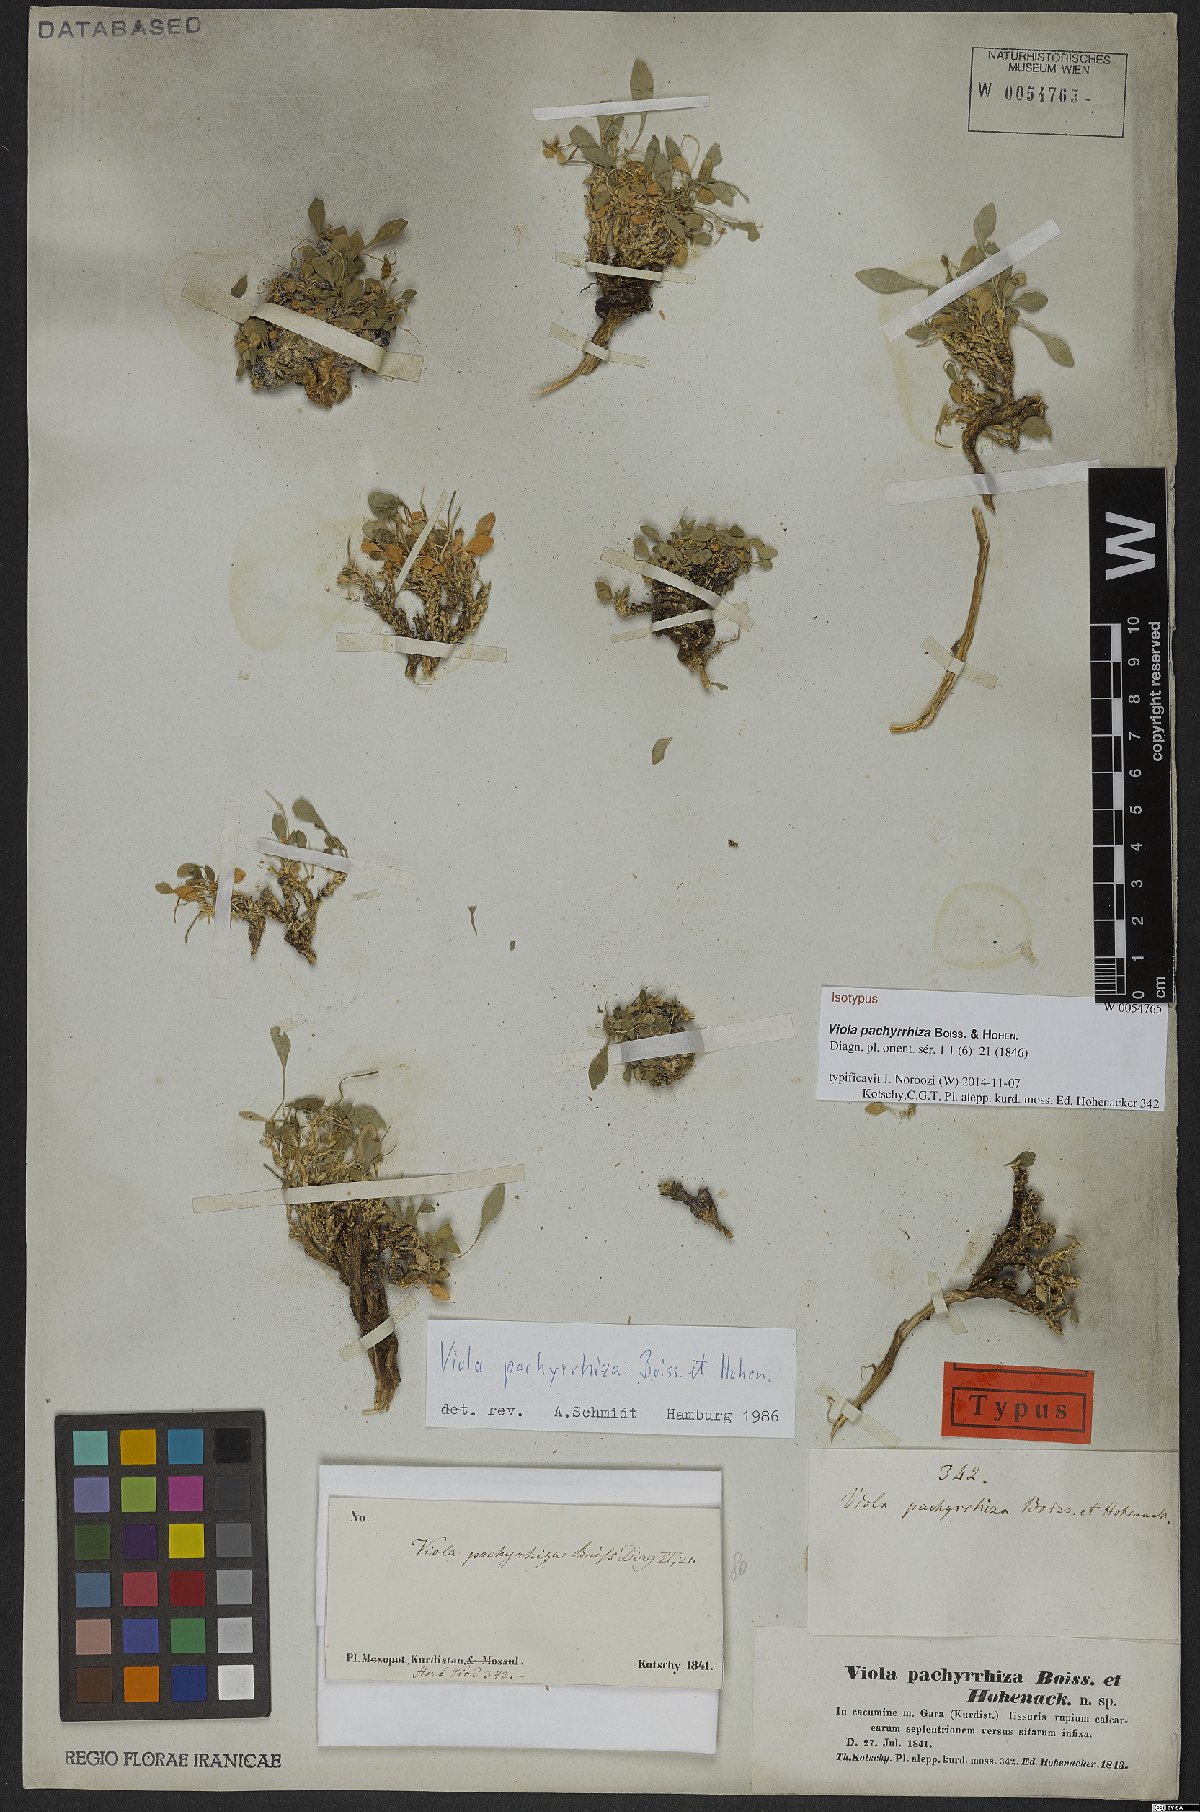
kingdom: Plantae
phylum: Tracheophyta
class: Magnoliopsida
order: Malpighiales
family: Violaceae
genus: Viola
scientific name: Viola pachyrrhiza
